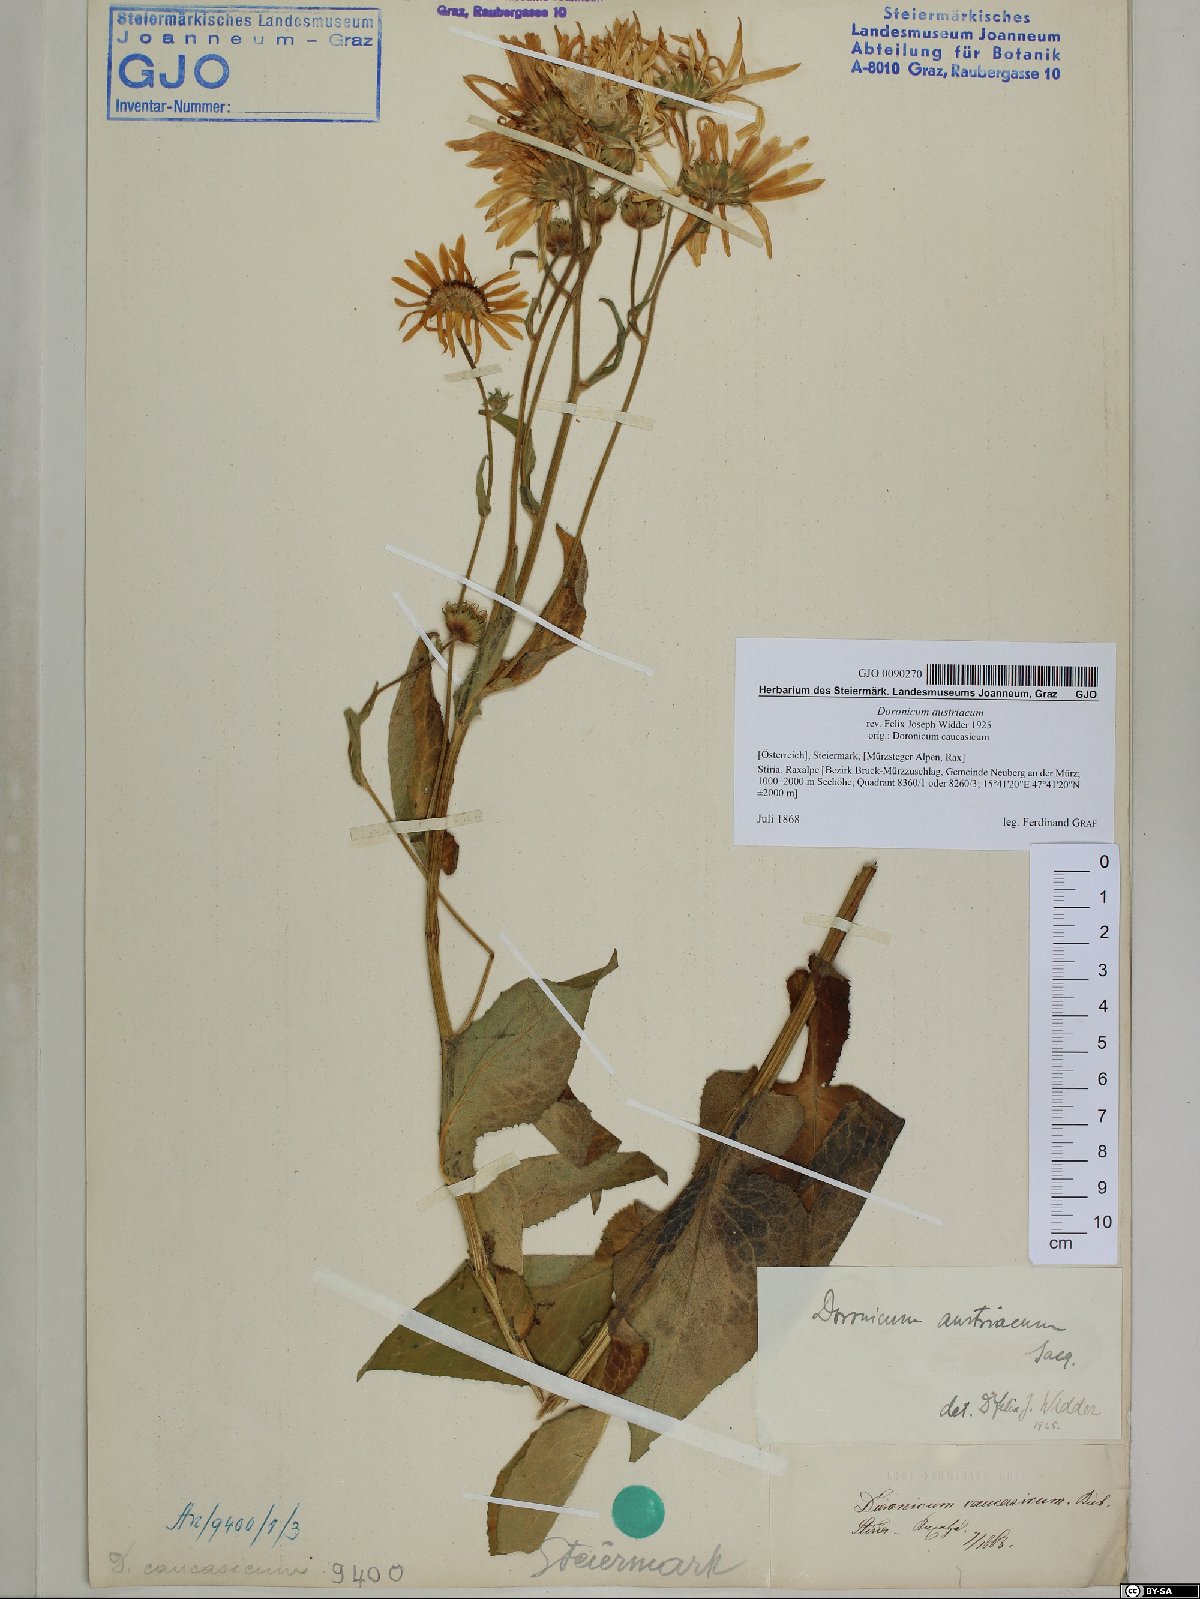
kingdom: Plantae
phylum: Tracheophyta
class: Magnoliopsida
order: Asterales
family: Asteraceae
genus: Doronicum
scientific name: Doronicum austriacum
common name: Austrian leopard's-bane
